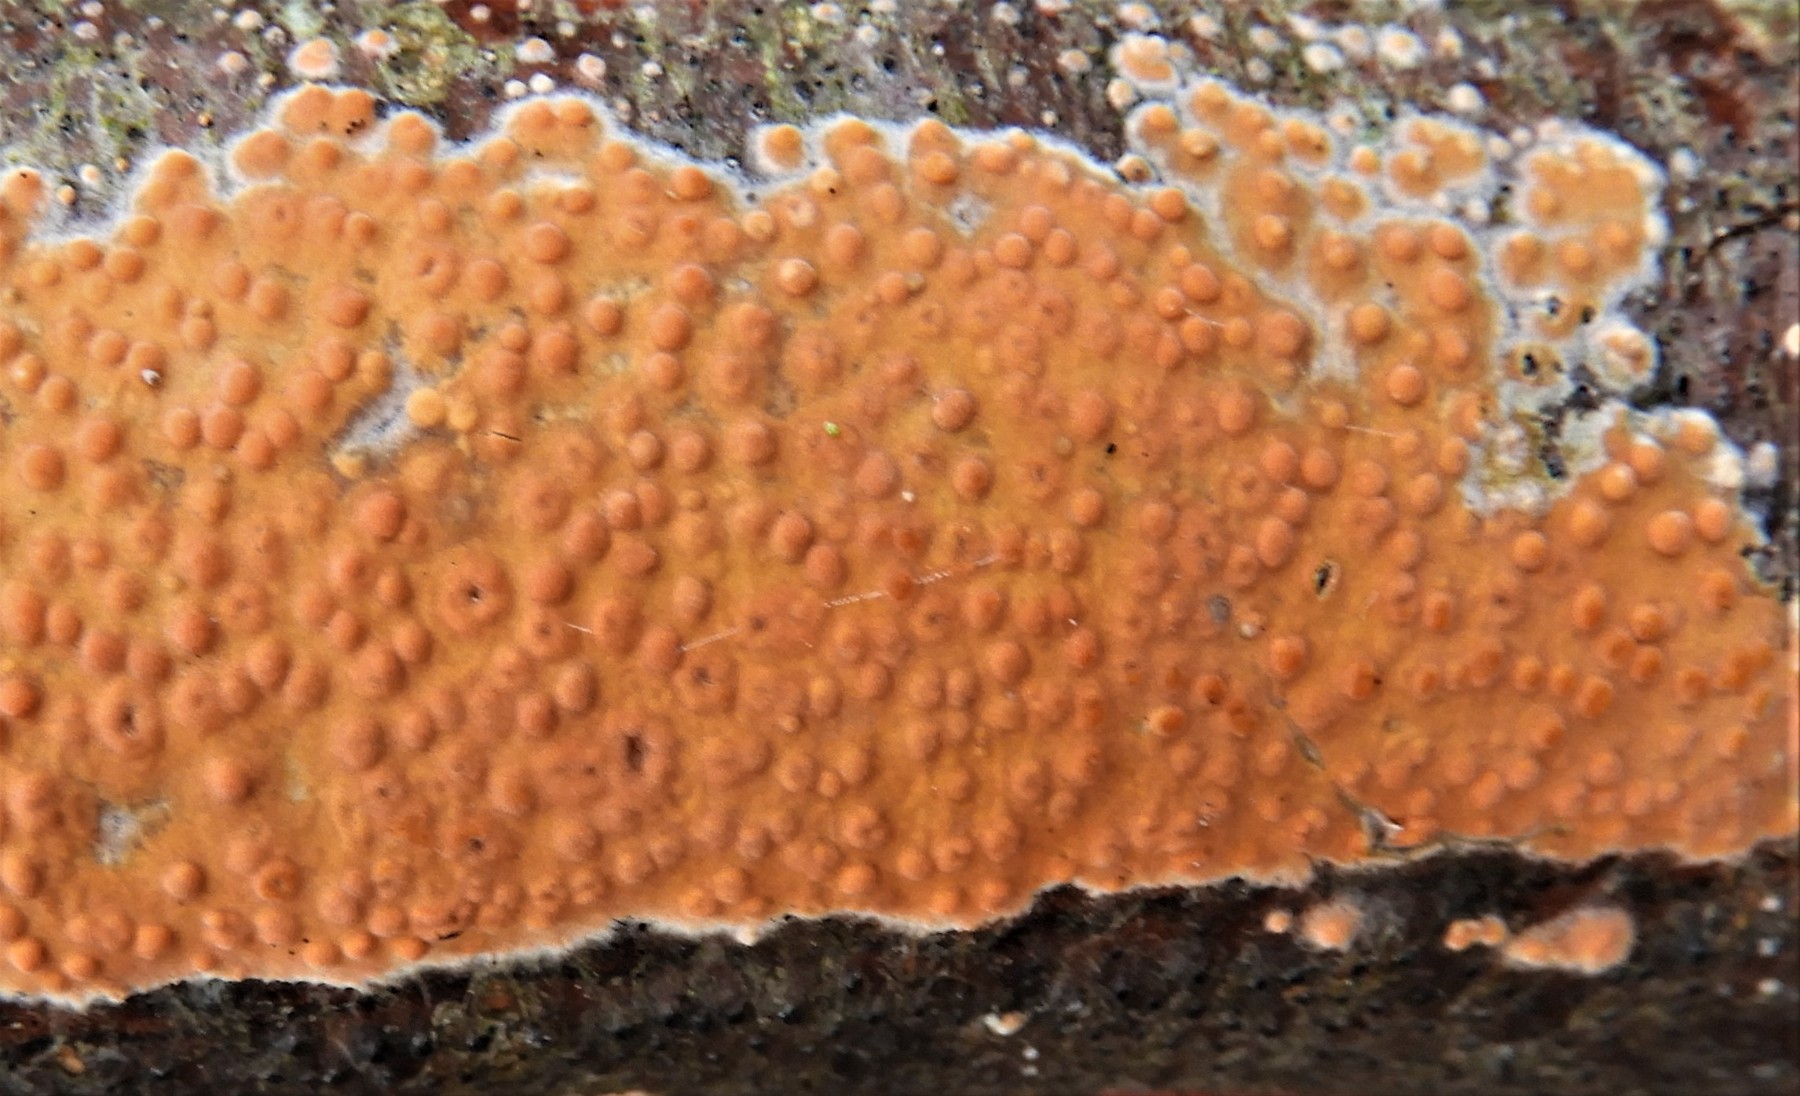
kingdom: Fungi
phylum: Basidiomycota
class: Agaricomycetes
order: Russulales
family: Peniophoraceae
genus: Peniophora
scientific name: Peniophora incarnata
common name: laksefarvet voksskind
